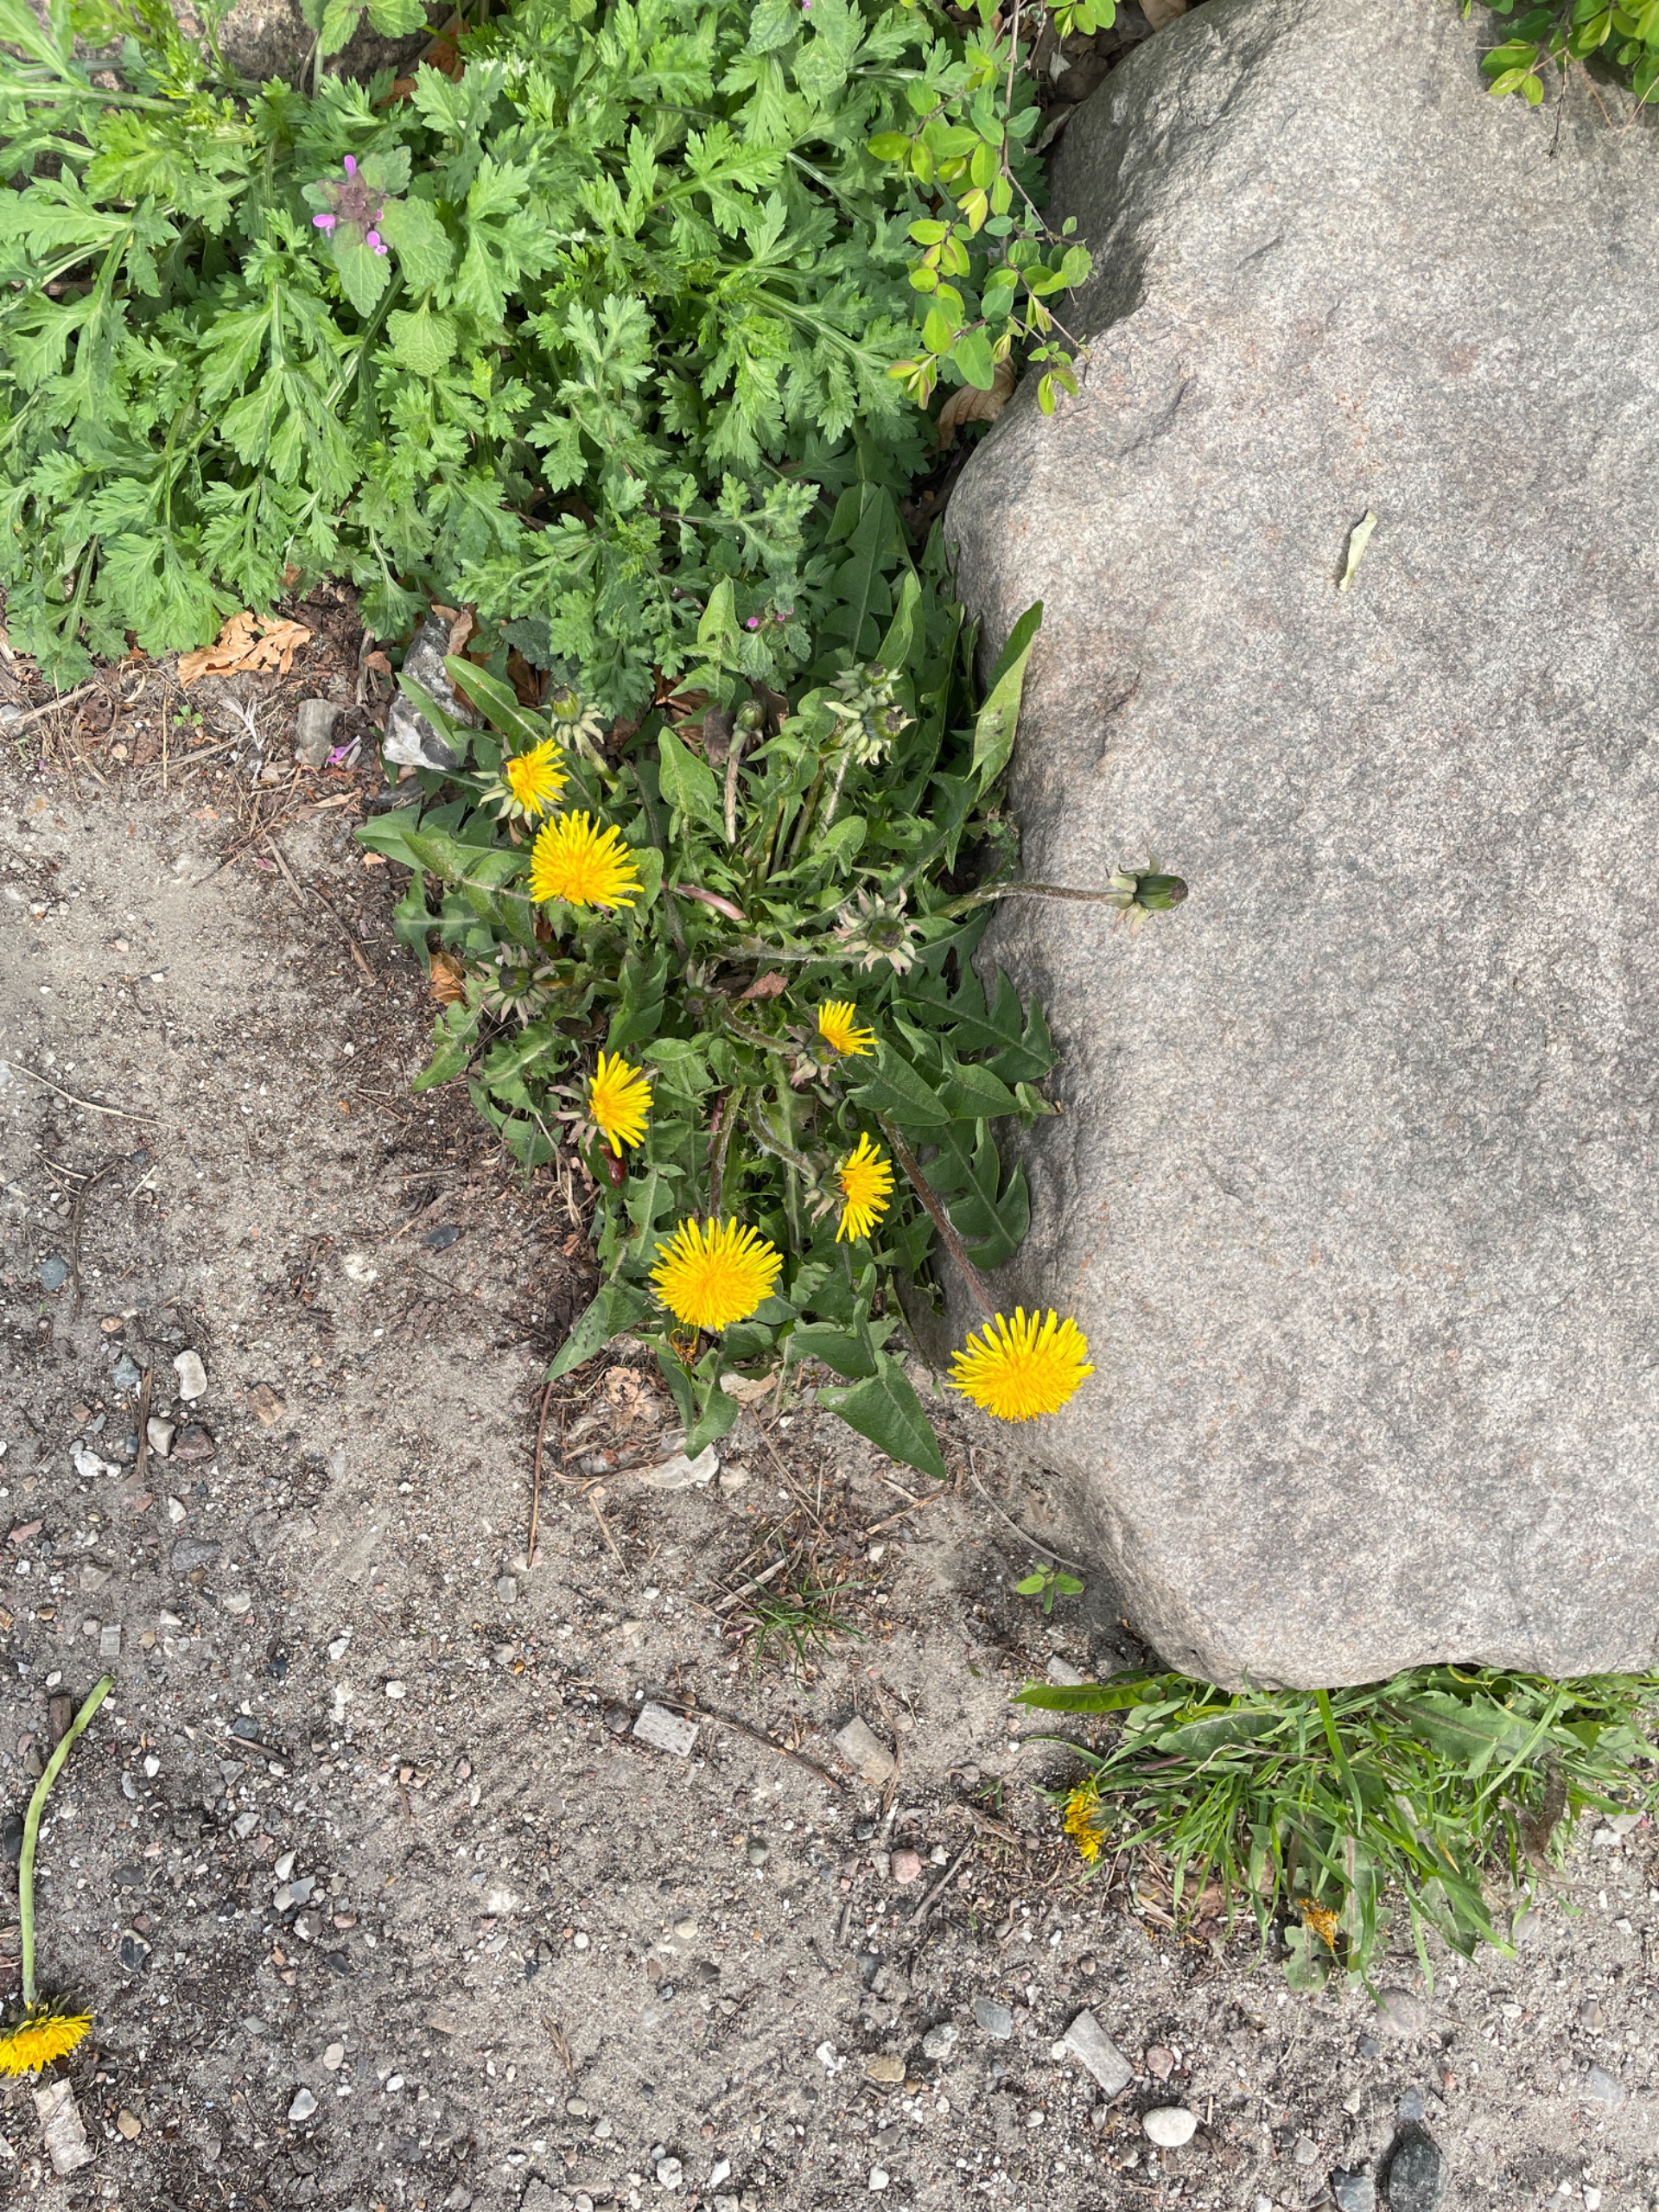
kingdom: Plantae
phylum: Tracheophyta
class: Magnoliopsida
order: Asterales
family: Asteraceae
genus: Taraxacum
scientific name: Taraxacum
